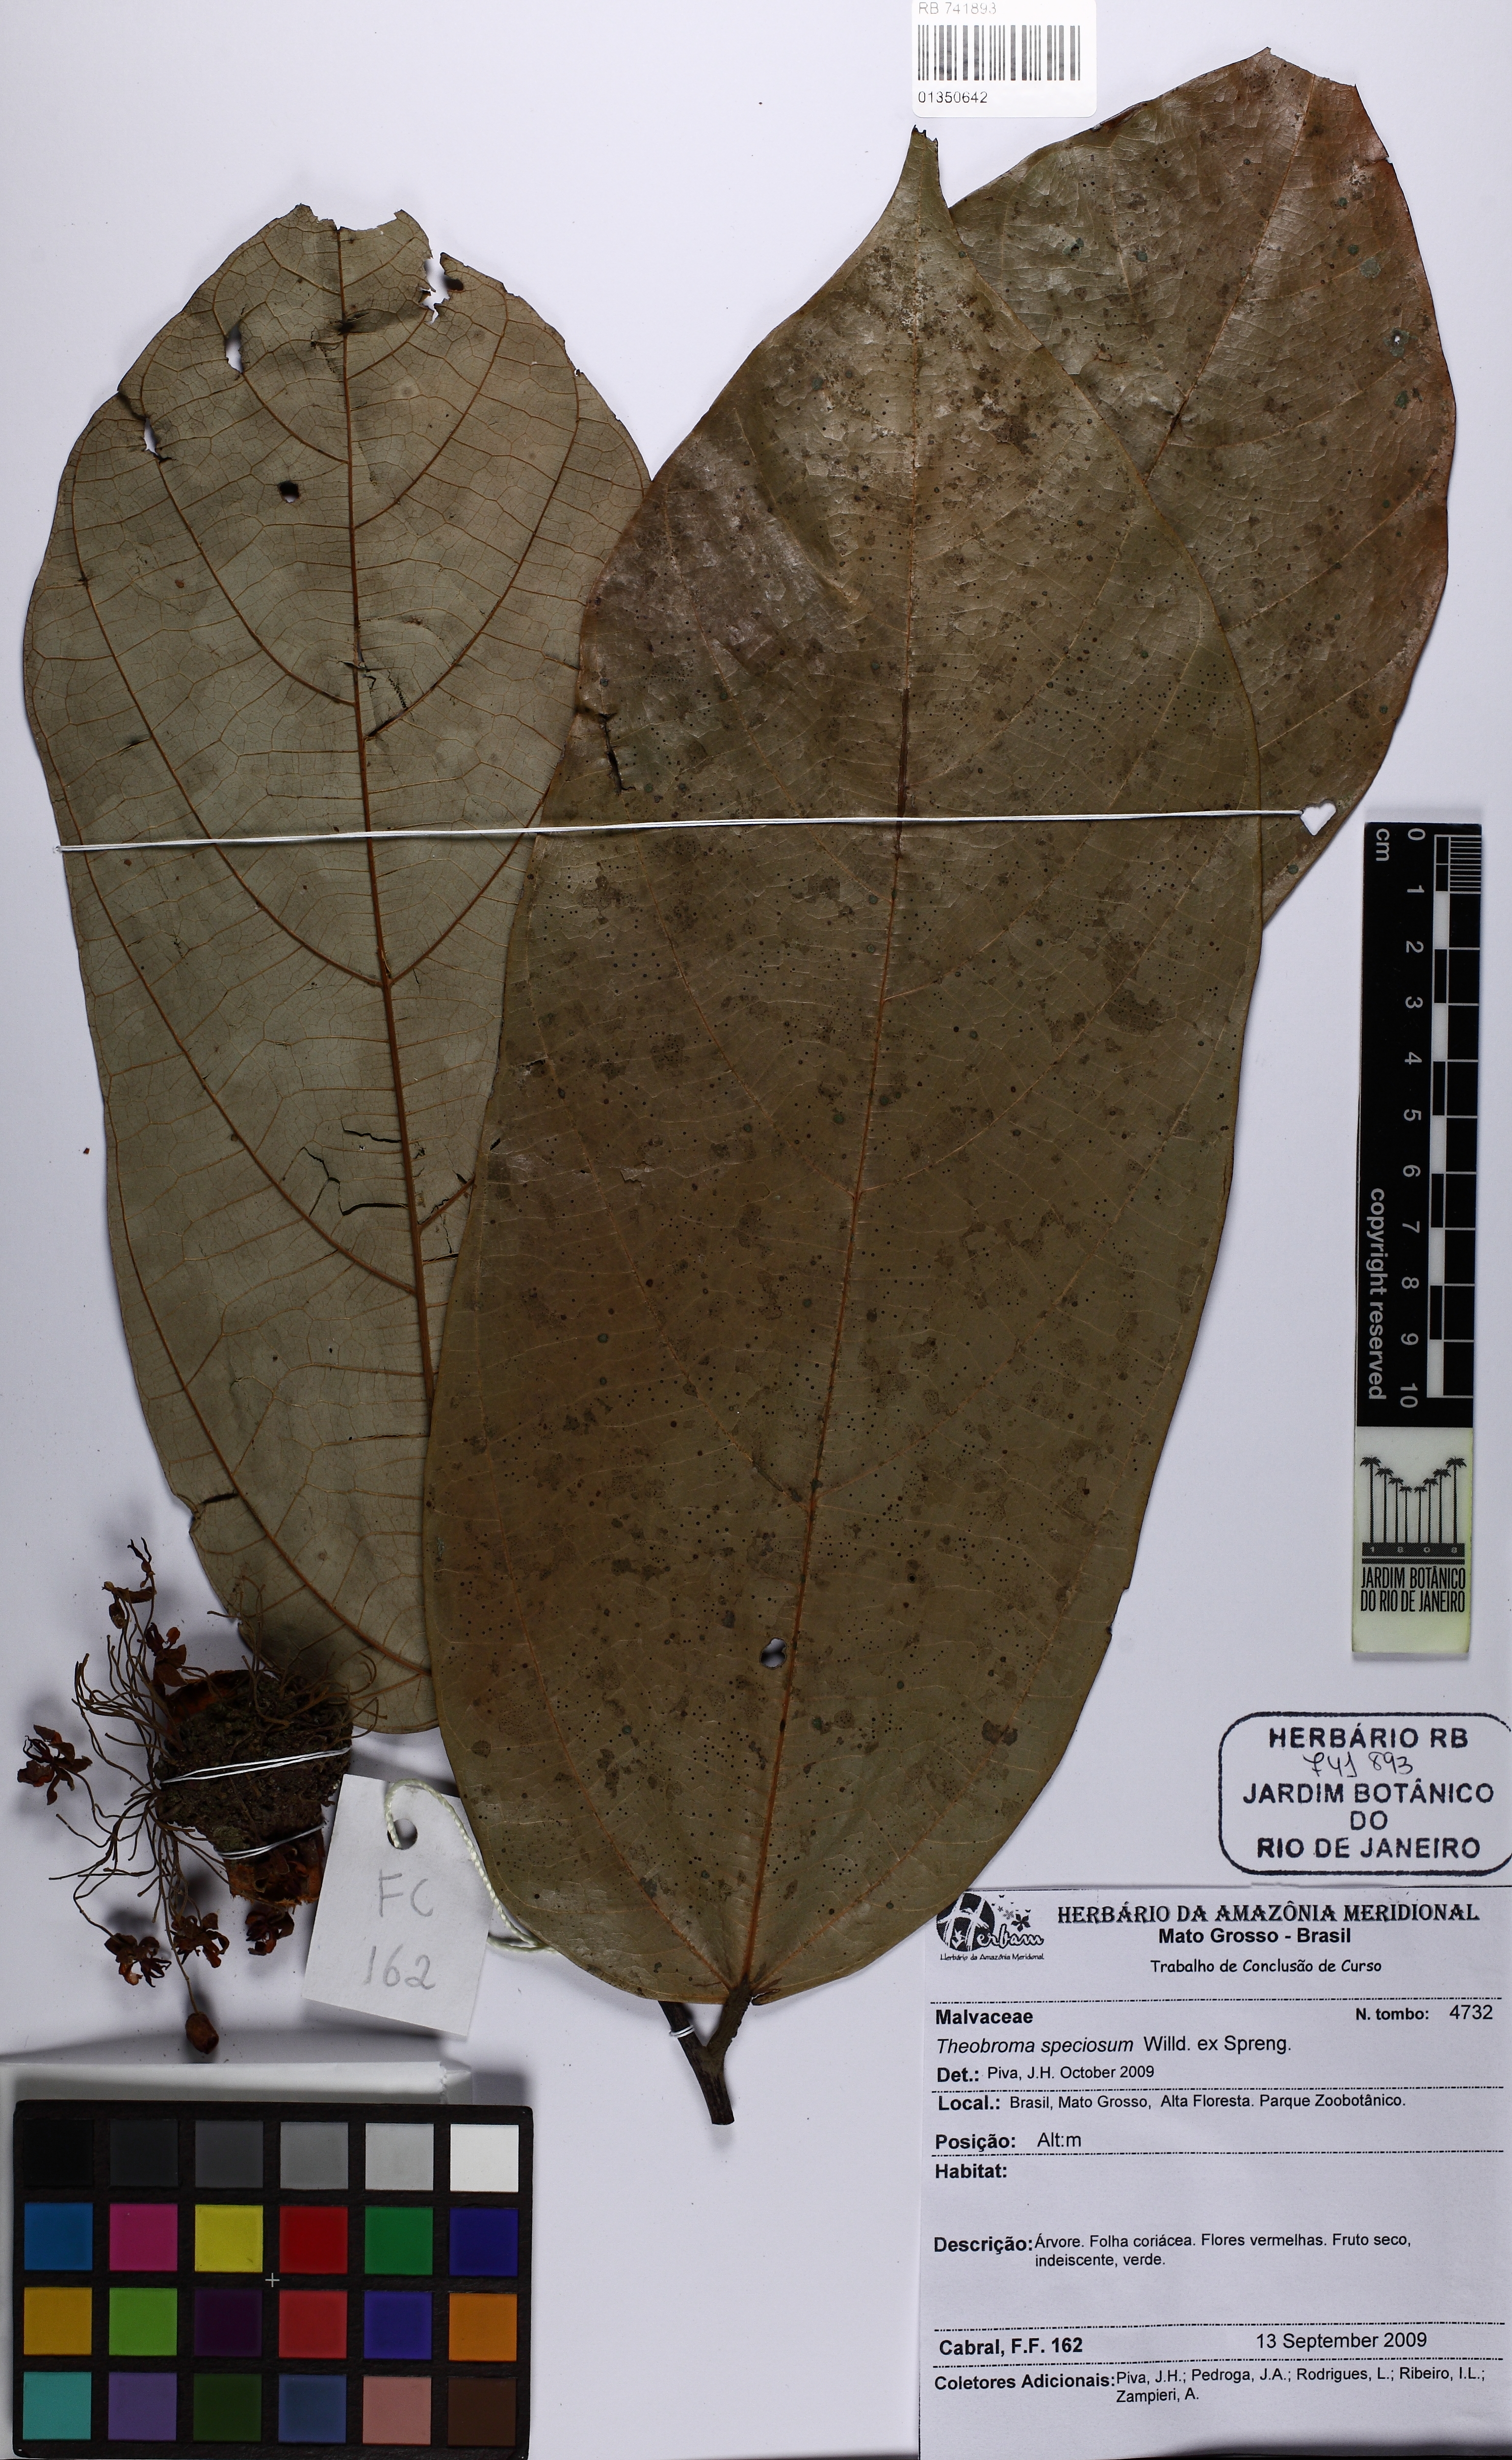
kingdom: Plantae
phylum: Tracheophyta
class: Magnoliopsida
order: Malvales
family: Malvaceae
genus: Theobroma
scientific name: Theobroma speciosum
